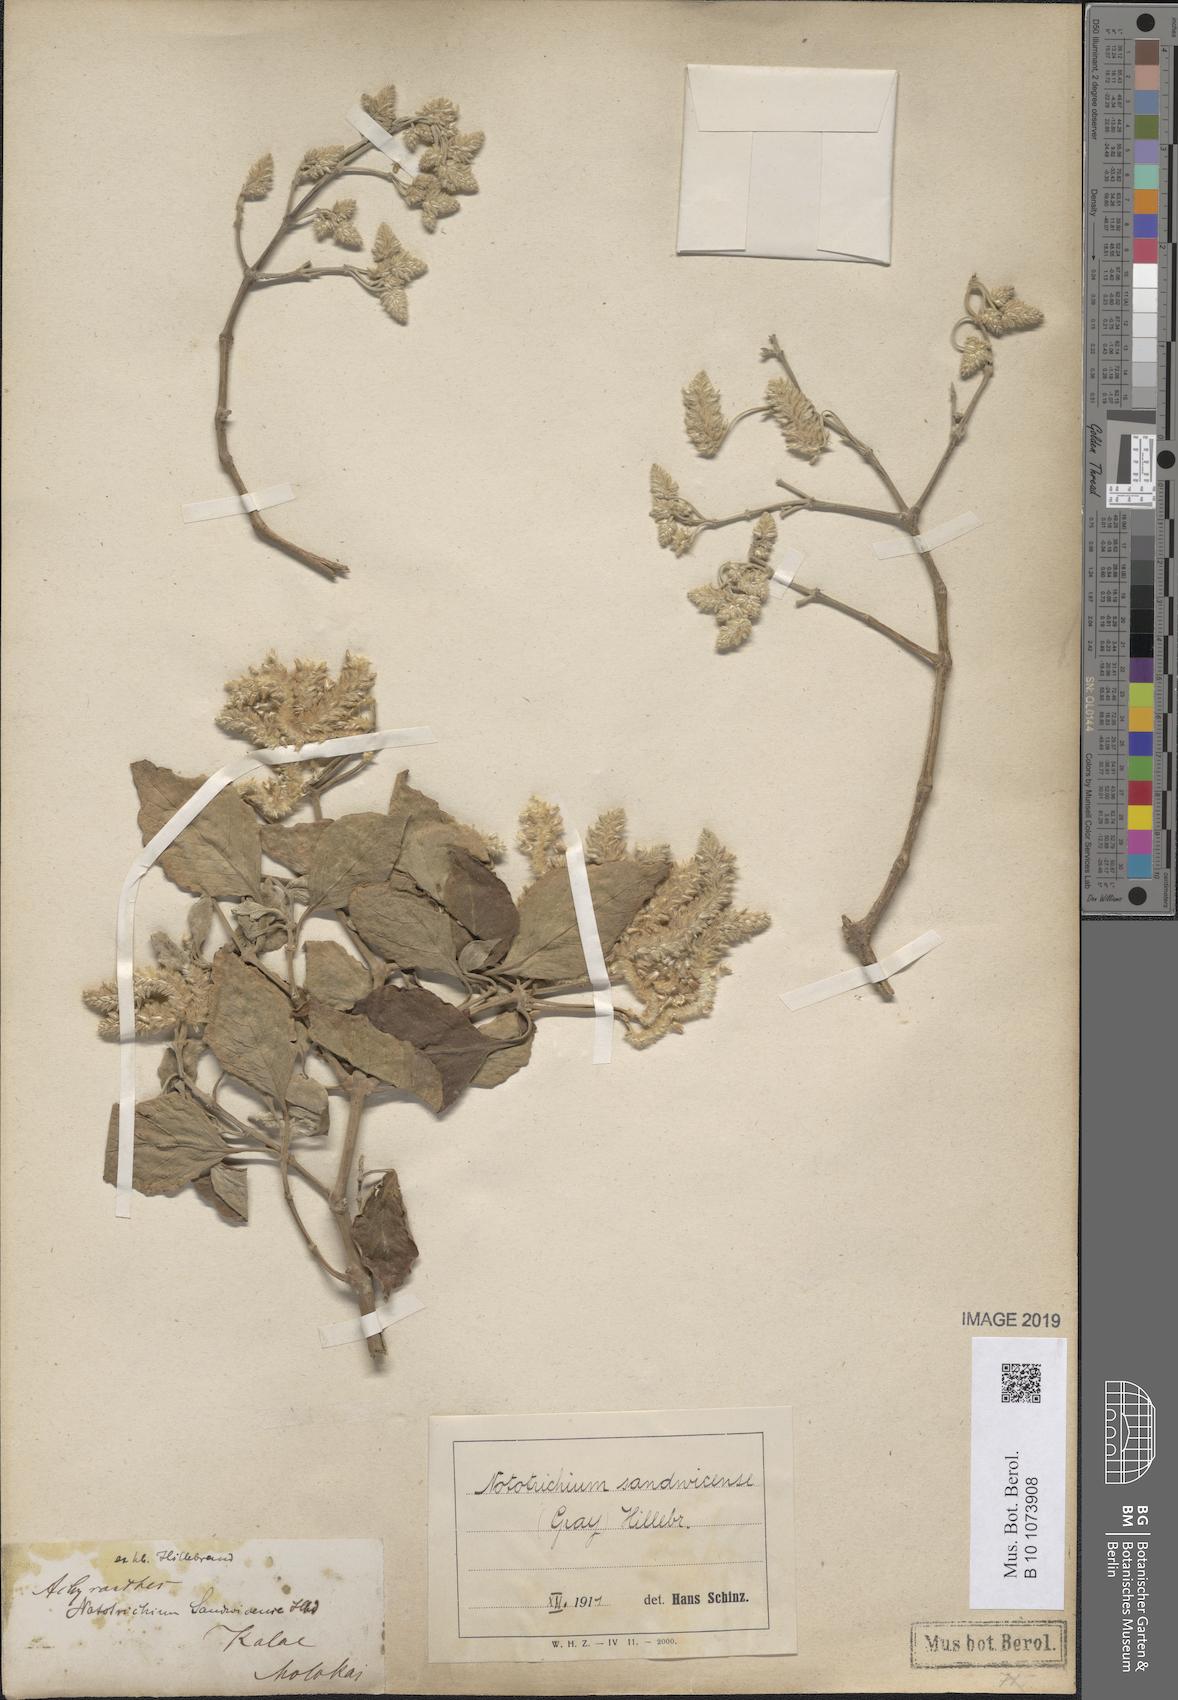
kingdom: Plantae
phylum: Tracheophyta
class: Magnoliopsida
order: Caryophyllales
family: Amaranthaceae
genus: Nototrichium
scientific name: Nototrichium sandwicense
